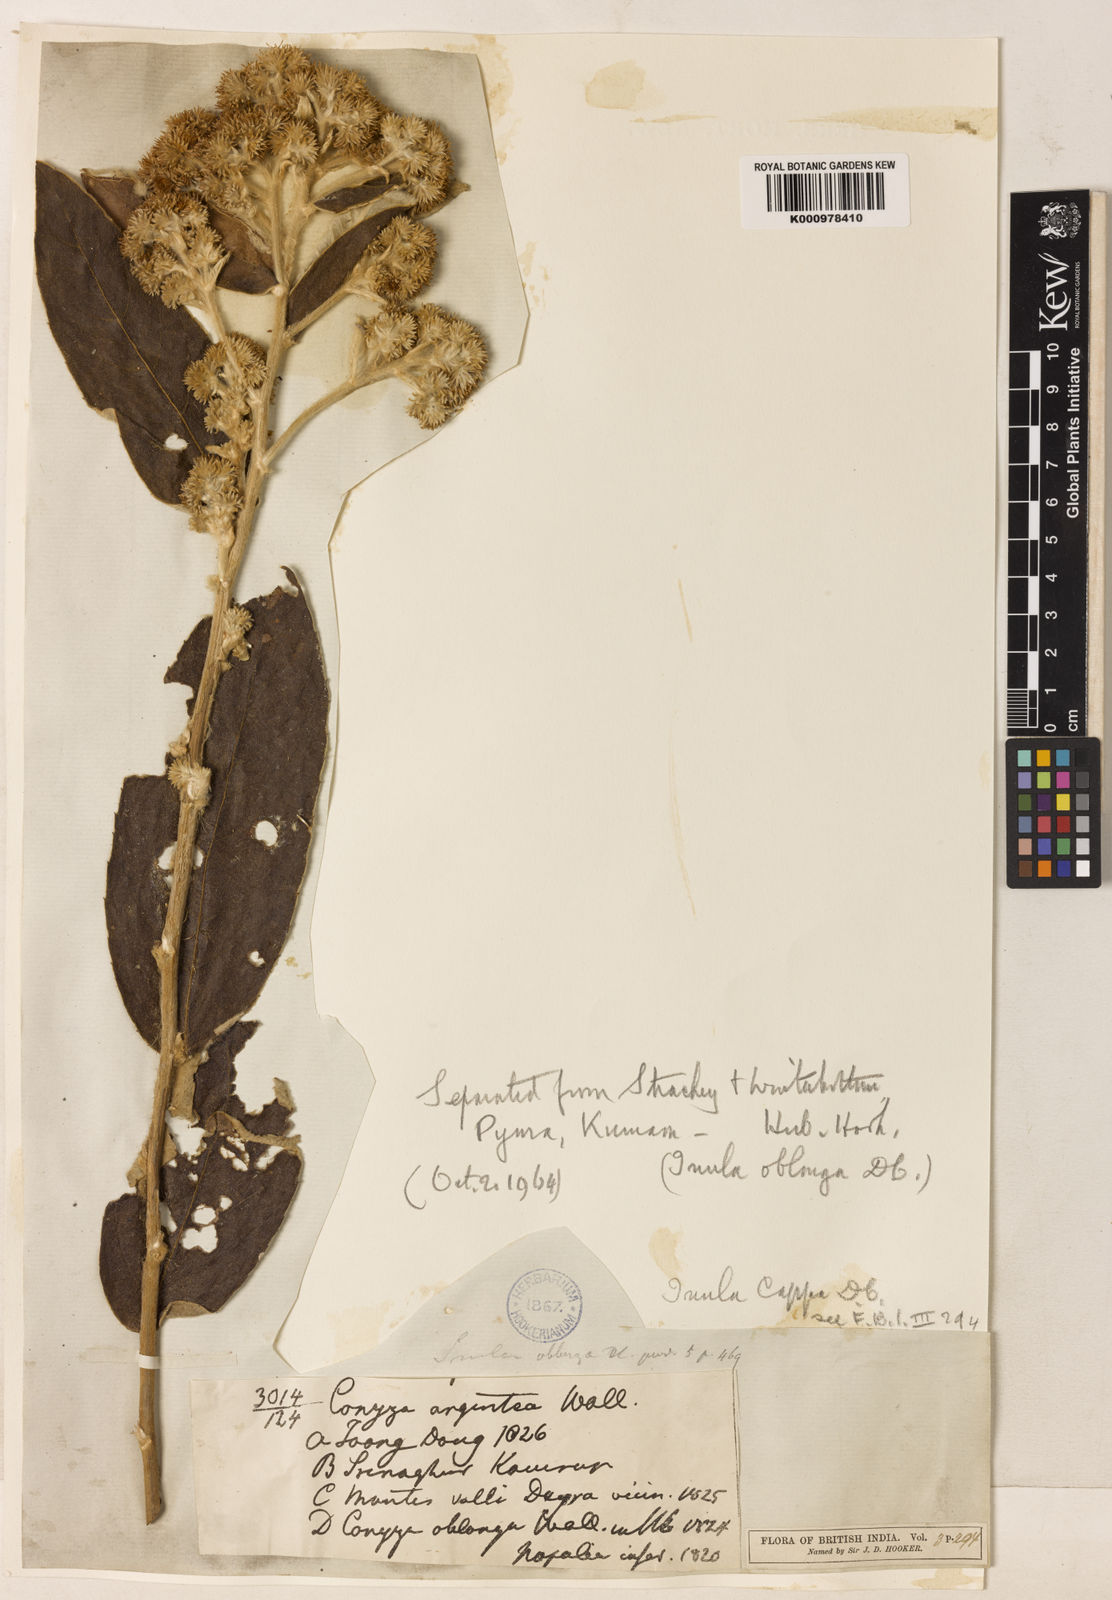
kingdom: Plantae
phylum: Tracheophyta
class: Magnoliopsida
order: Asterales
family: Asteraceae
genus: Duhaldea
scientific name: Duhaldea cappa
